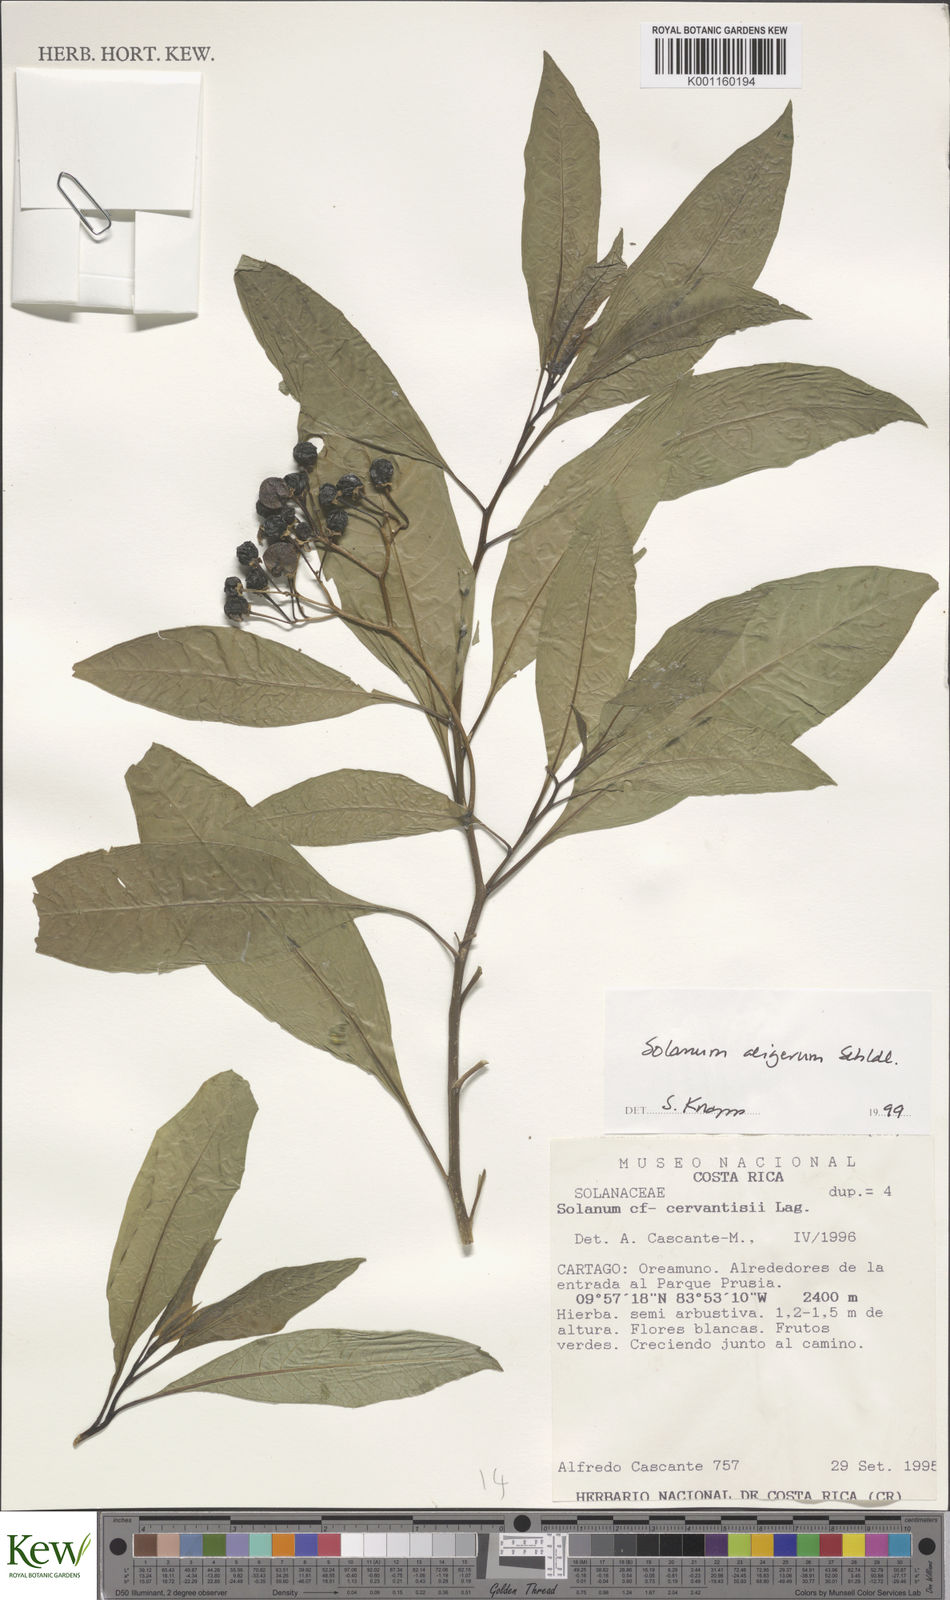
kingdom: Plantae
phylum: Tracheophyta
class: Magnoliopsida
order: Solanales
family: Solanaceae
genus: Solanum
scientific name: Solanum
